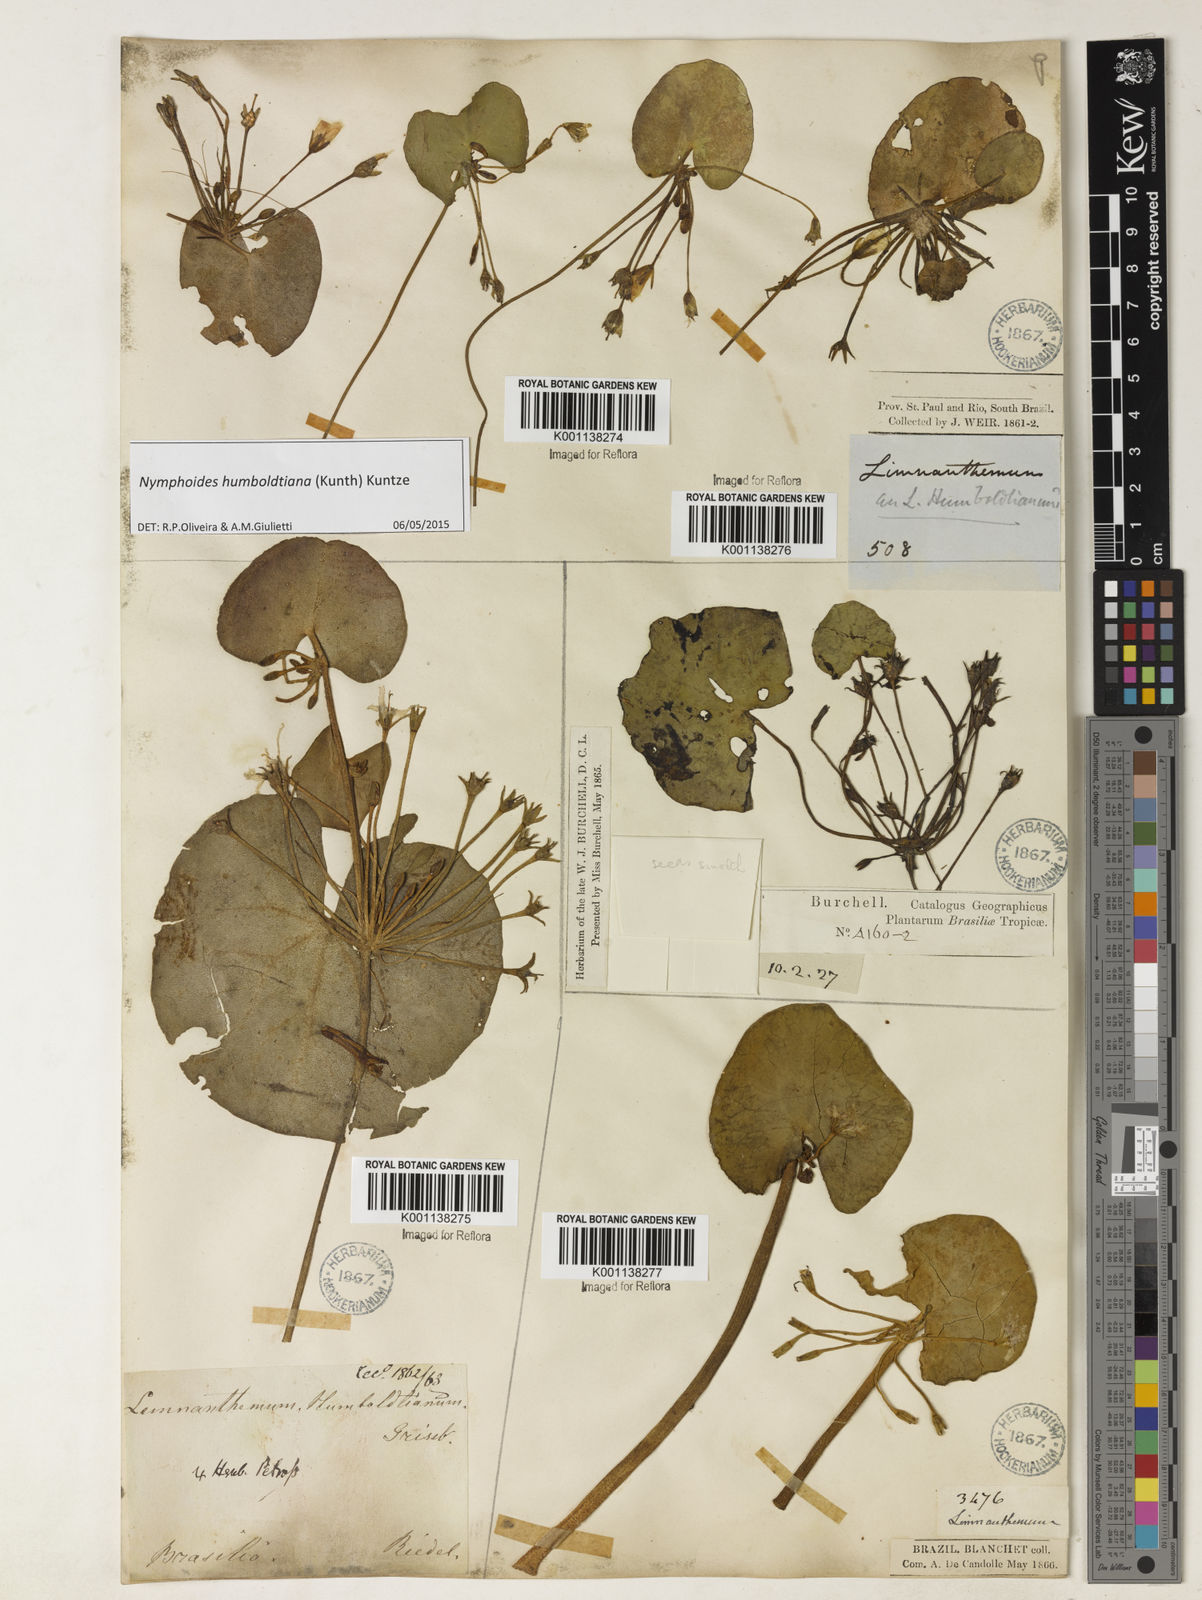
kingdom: Plantae
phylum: Tracheophyta
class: Magnoliopsida
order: Asterales
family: Menyanthaceae
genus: Nymphoides
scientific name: Nymphoides humboldtiana
